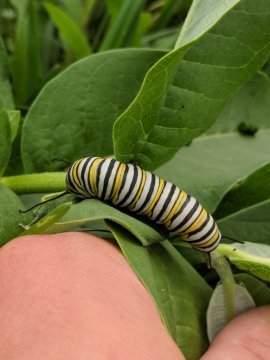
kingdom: Animalia
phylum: Arthropoda
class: Insecta
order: Lepidoptera
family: Nymphalidae
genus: Danaus
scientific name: Danaus plexippus
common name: Monarch
